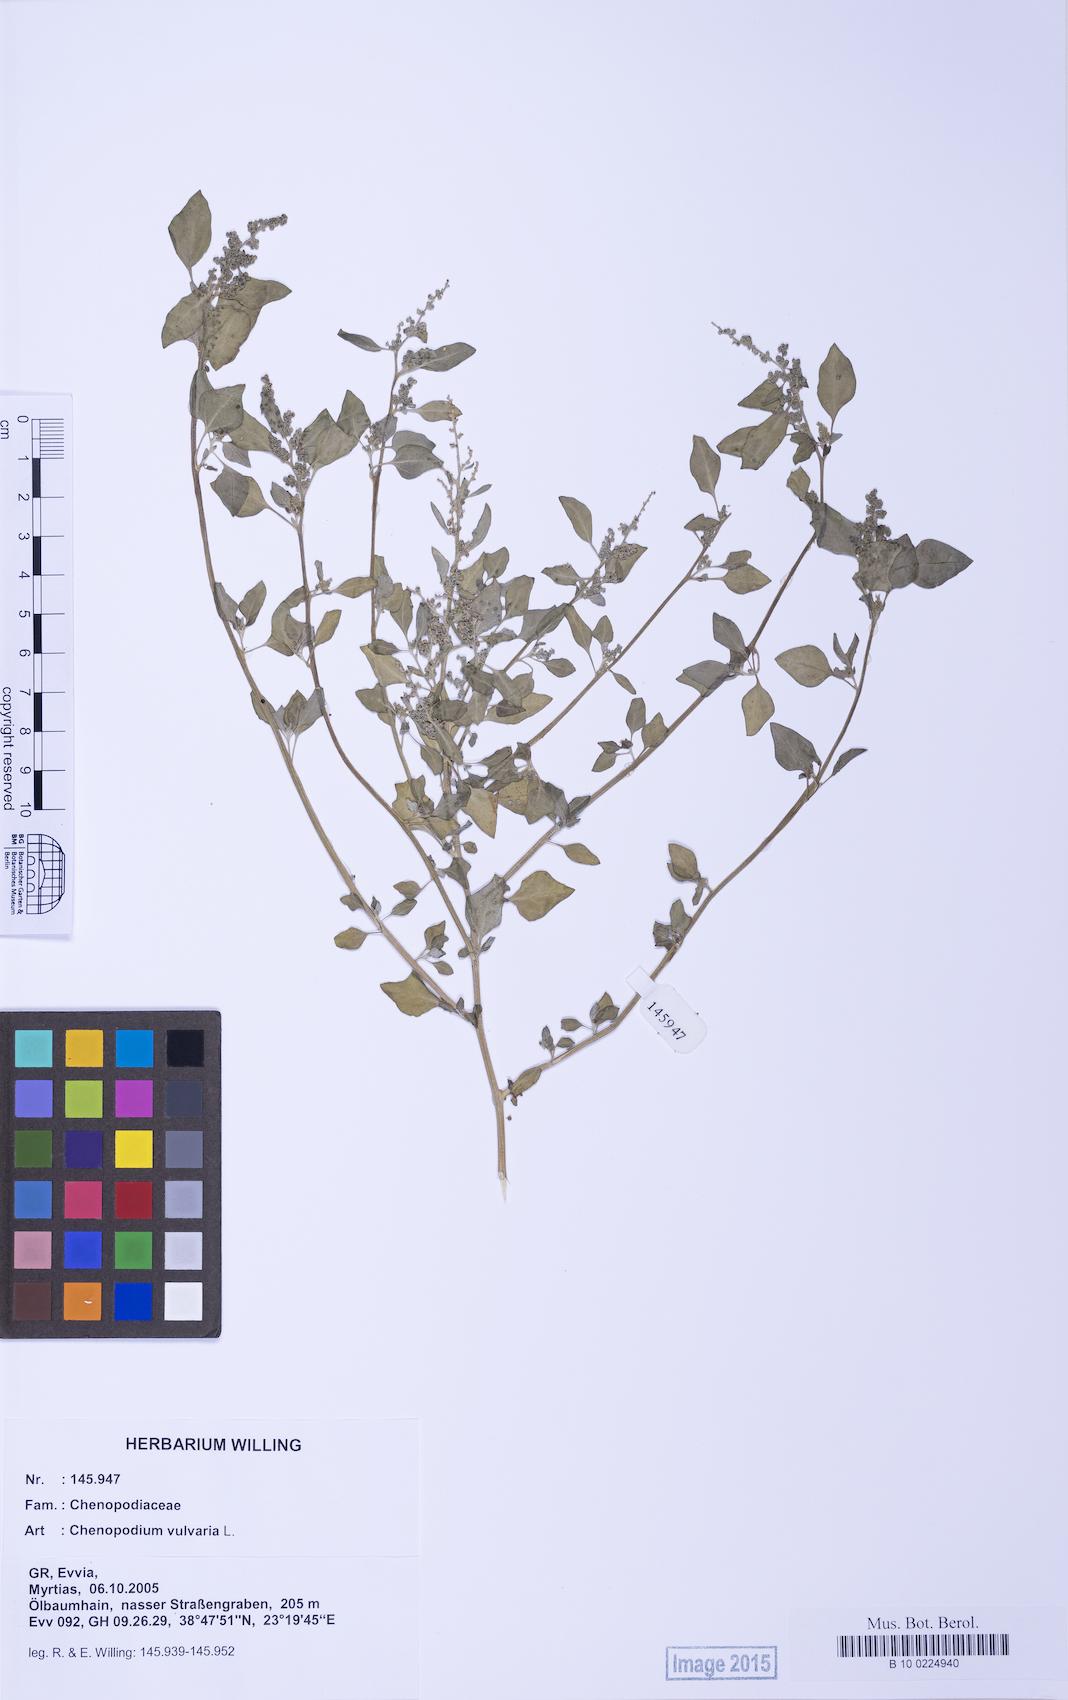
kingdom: Plantae
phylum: Tracheophyta
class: Magnoliopsida
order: Caryophyllales
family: Amaranthaceae
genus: Chenopodium
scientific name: Chenopodium vulvaria
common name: Stinking goosefoot
